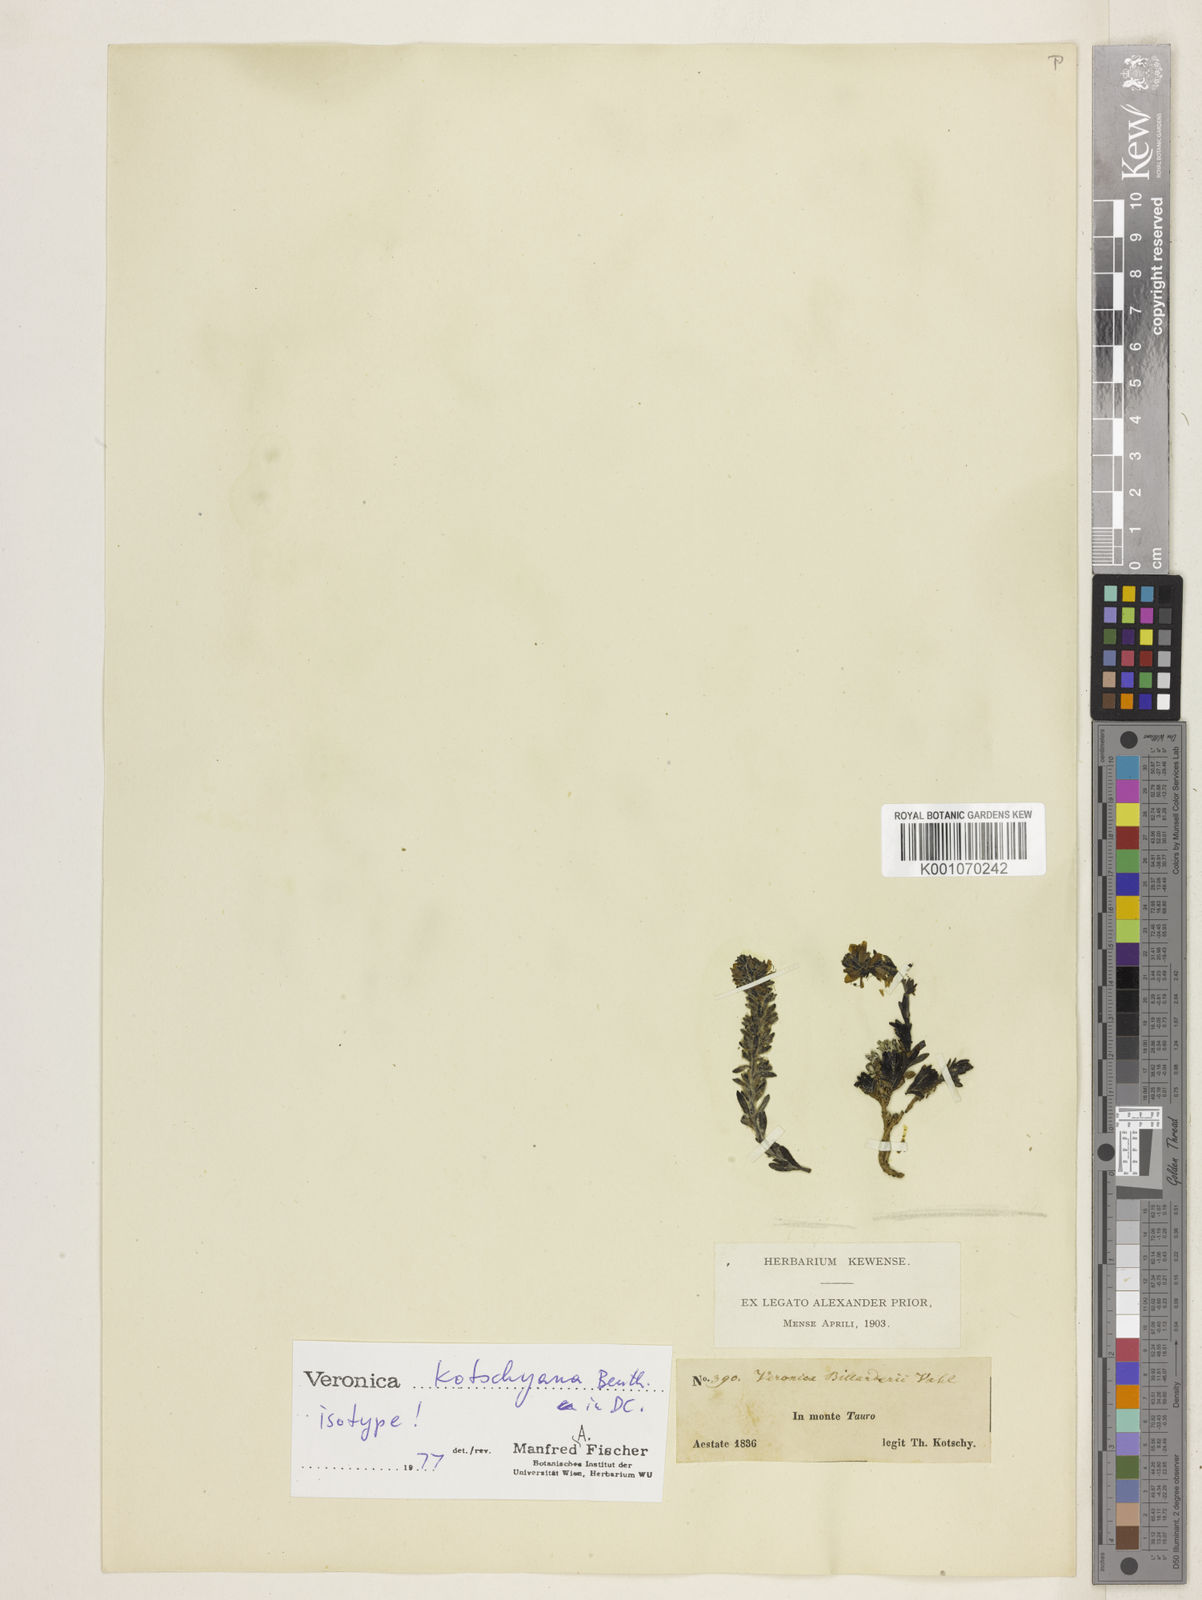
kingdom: Plantae
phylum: Tracheophyta
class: Magnoliopsida
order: Lamiales
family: Plantaginaceae
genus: Veronica
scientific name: Veronica kotschyana
